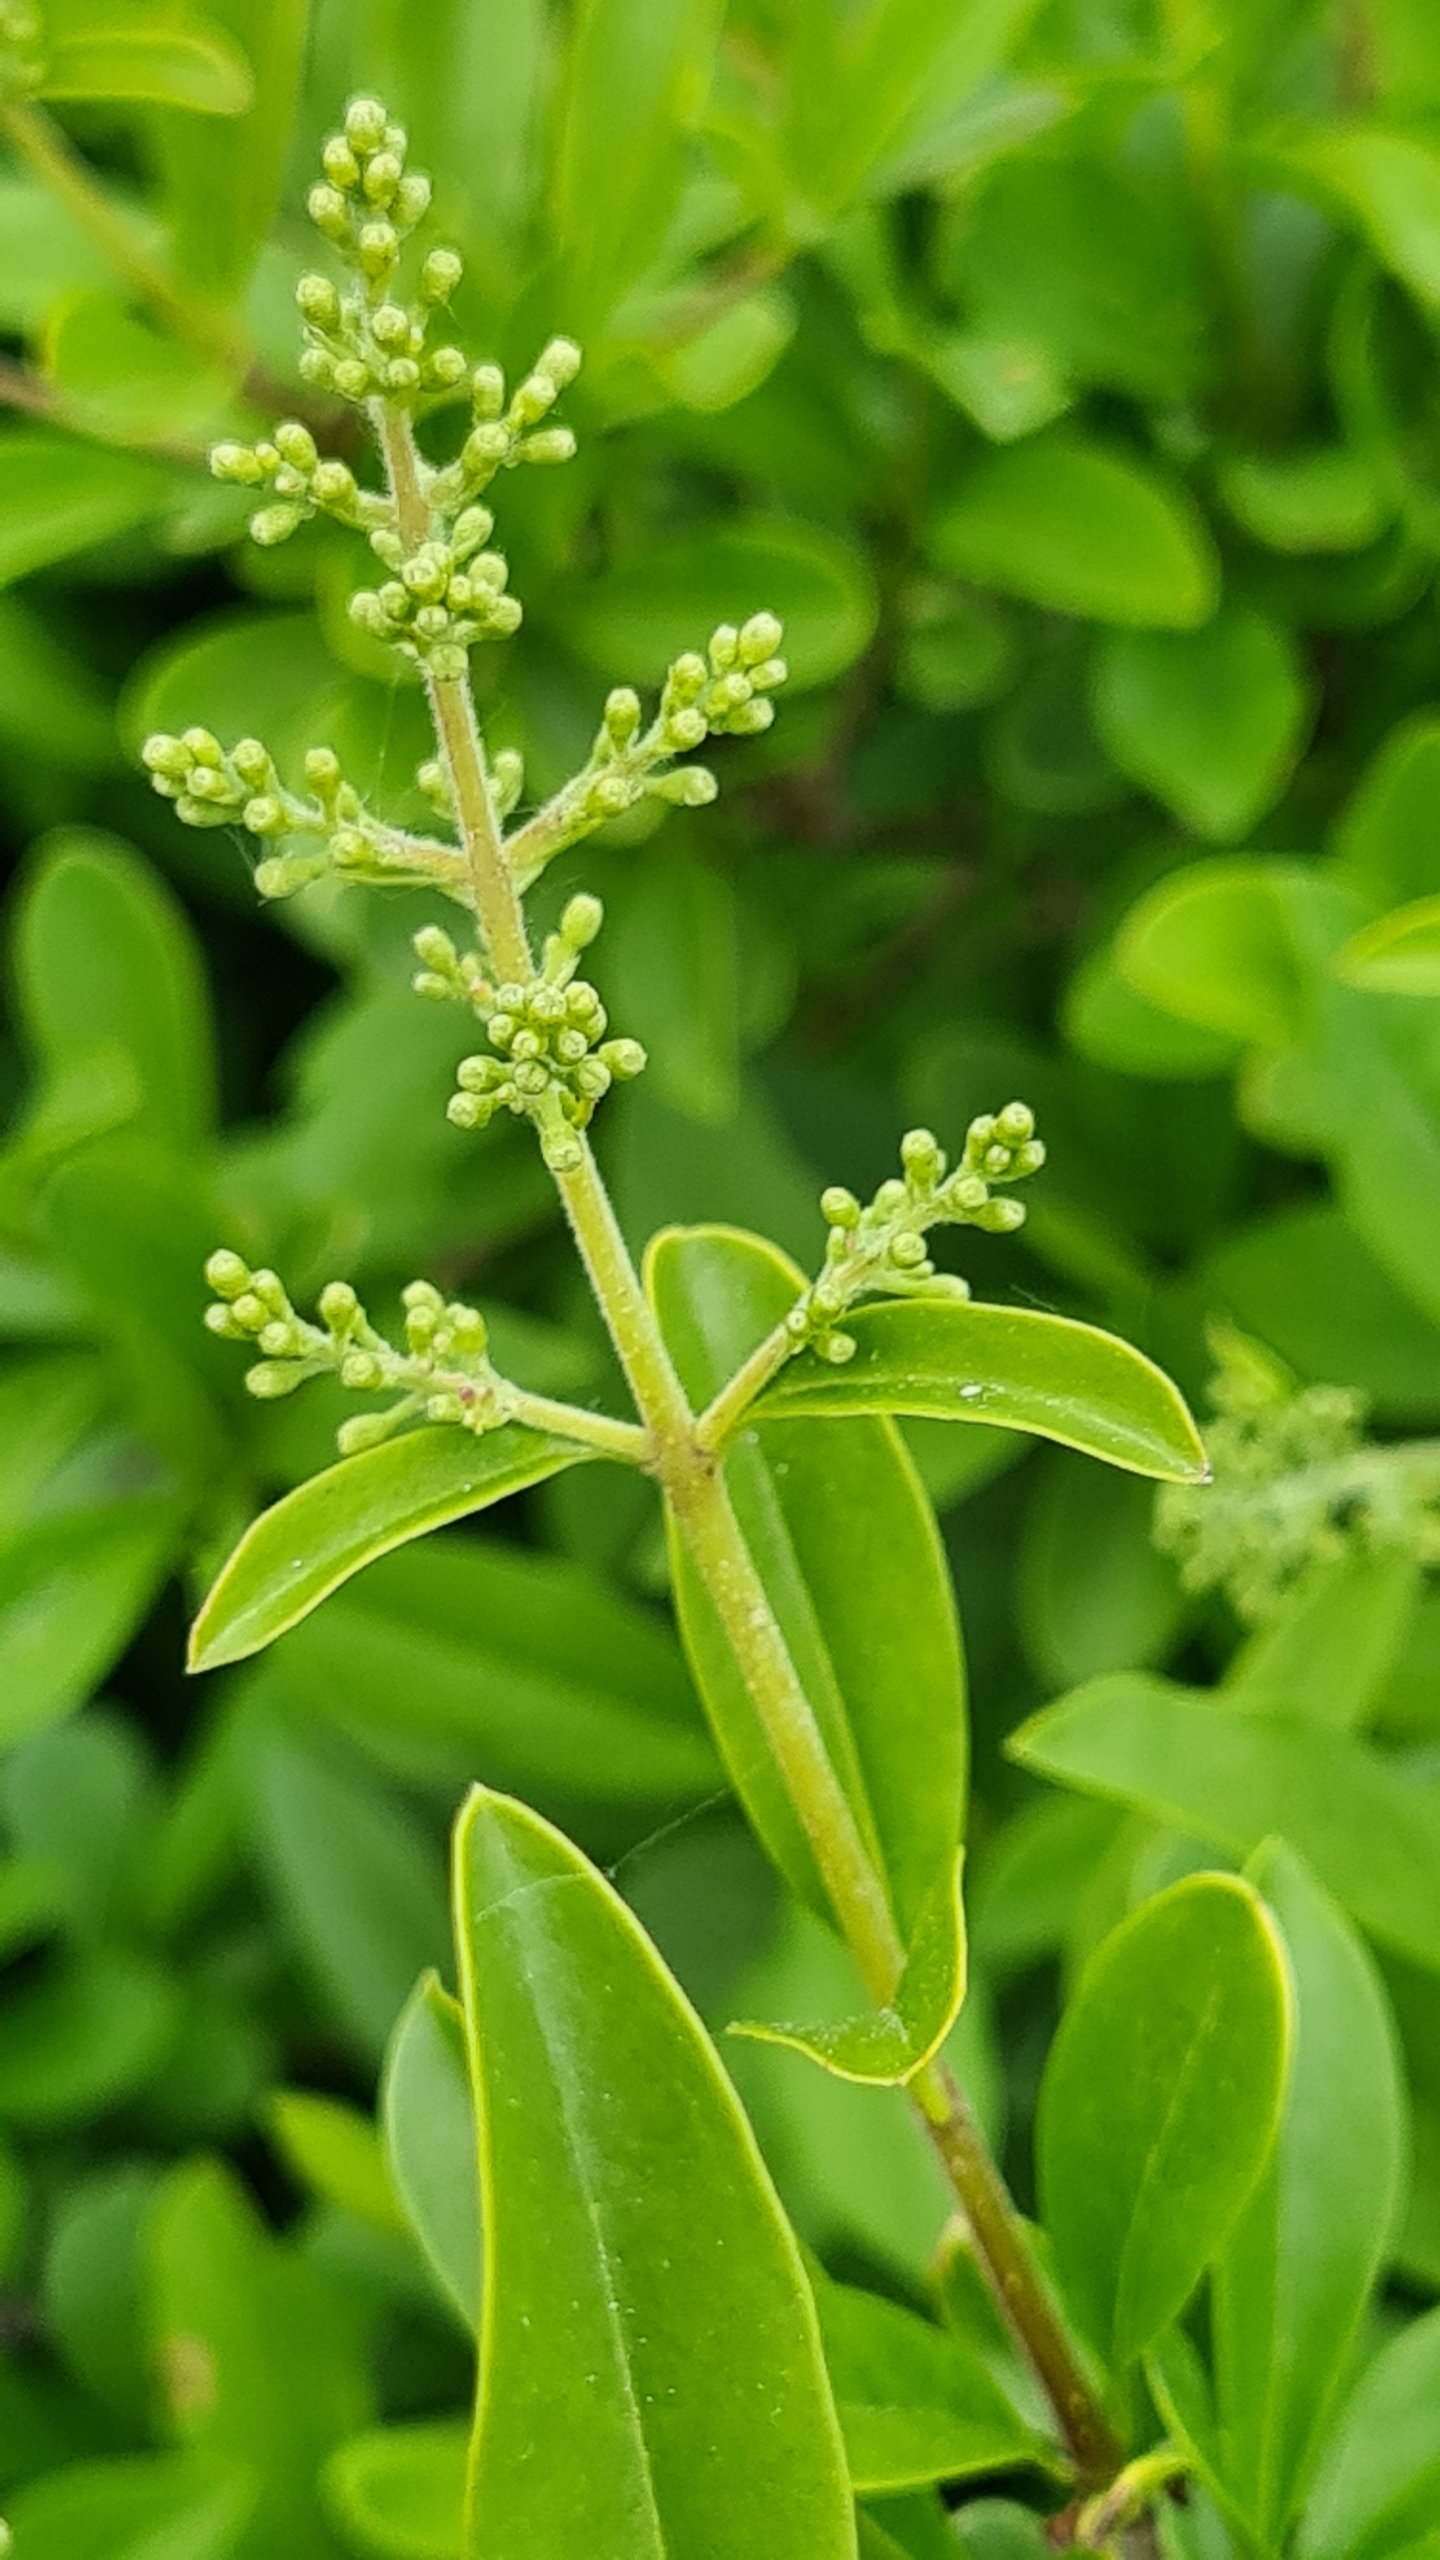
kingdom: Plantae
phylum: Tracheophyta
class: Magnoliopsida
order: Lamiales
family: Oleaceae
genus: Ligustrum
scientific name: Ligustrum vulgare
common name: Liguster
